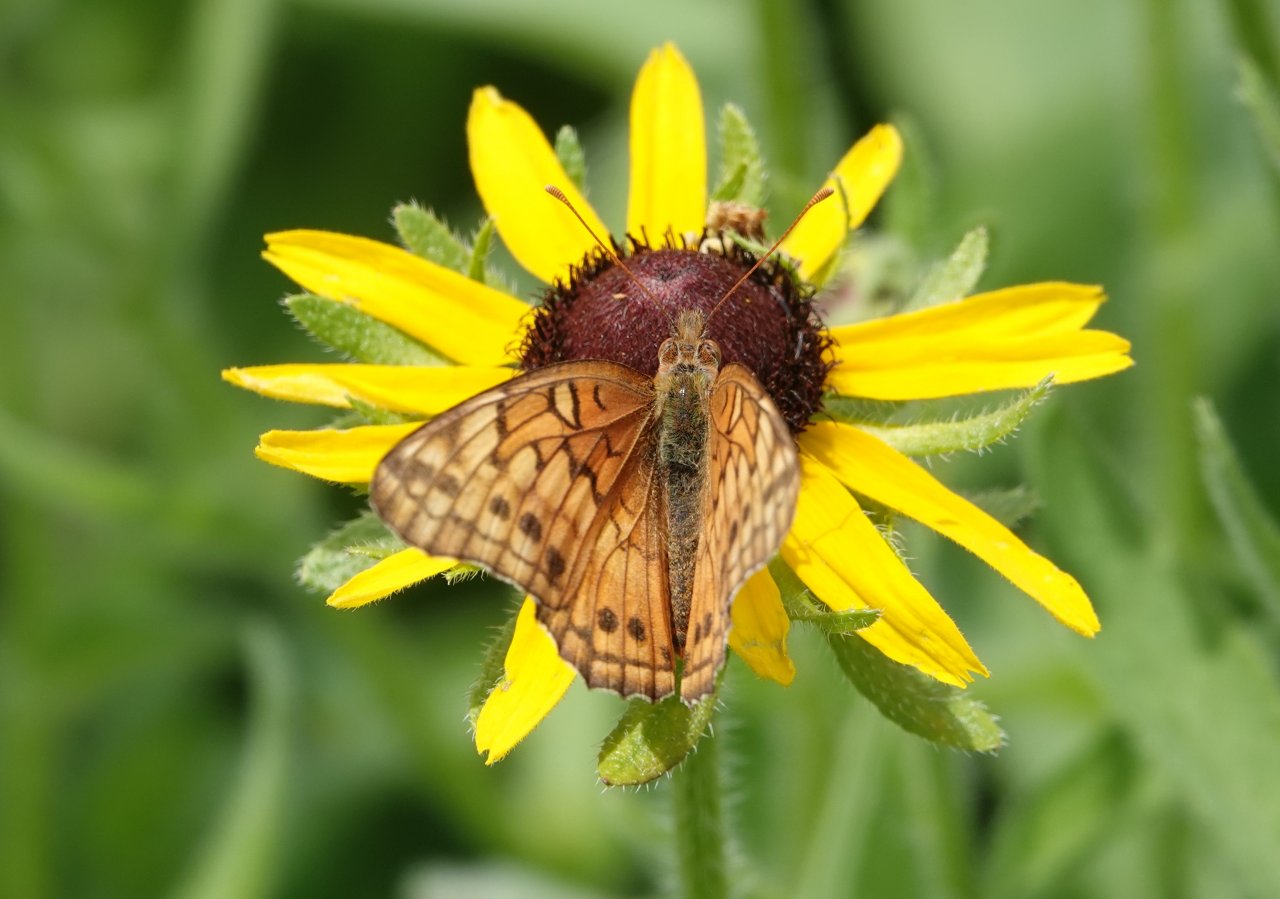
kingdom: Animalia
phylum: Arthropoda
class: Insecta
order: Lepidoptera
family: Nymphalidae
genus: Euptoieta
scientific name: Euptoieta claudia
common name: Variegated Fritillary
